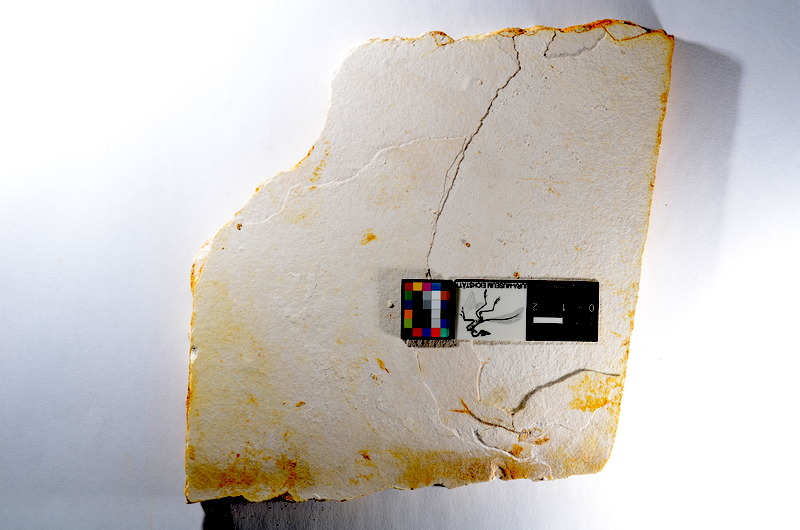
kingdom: Animalia
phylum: Chordata
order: Salmoniformes
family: Orthogonikleithridae
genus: Orthogonikleithrus
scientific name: Orthogonikleithrus hoelli
